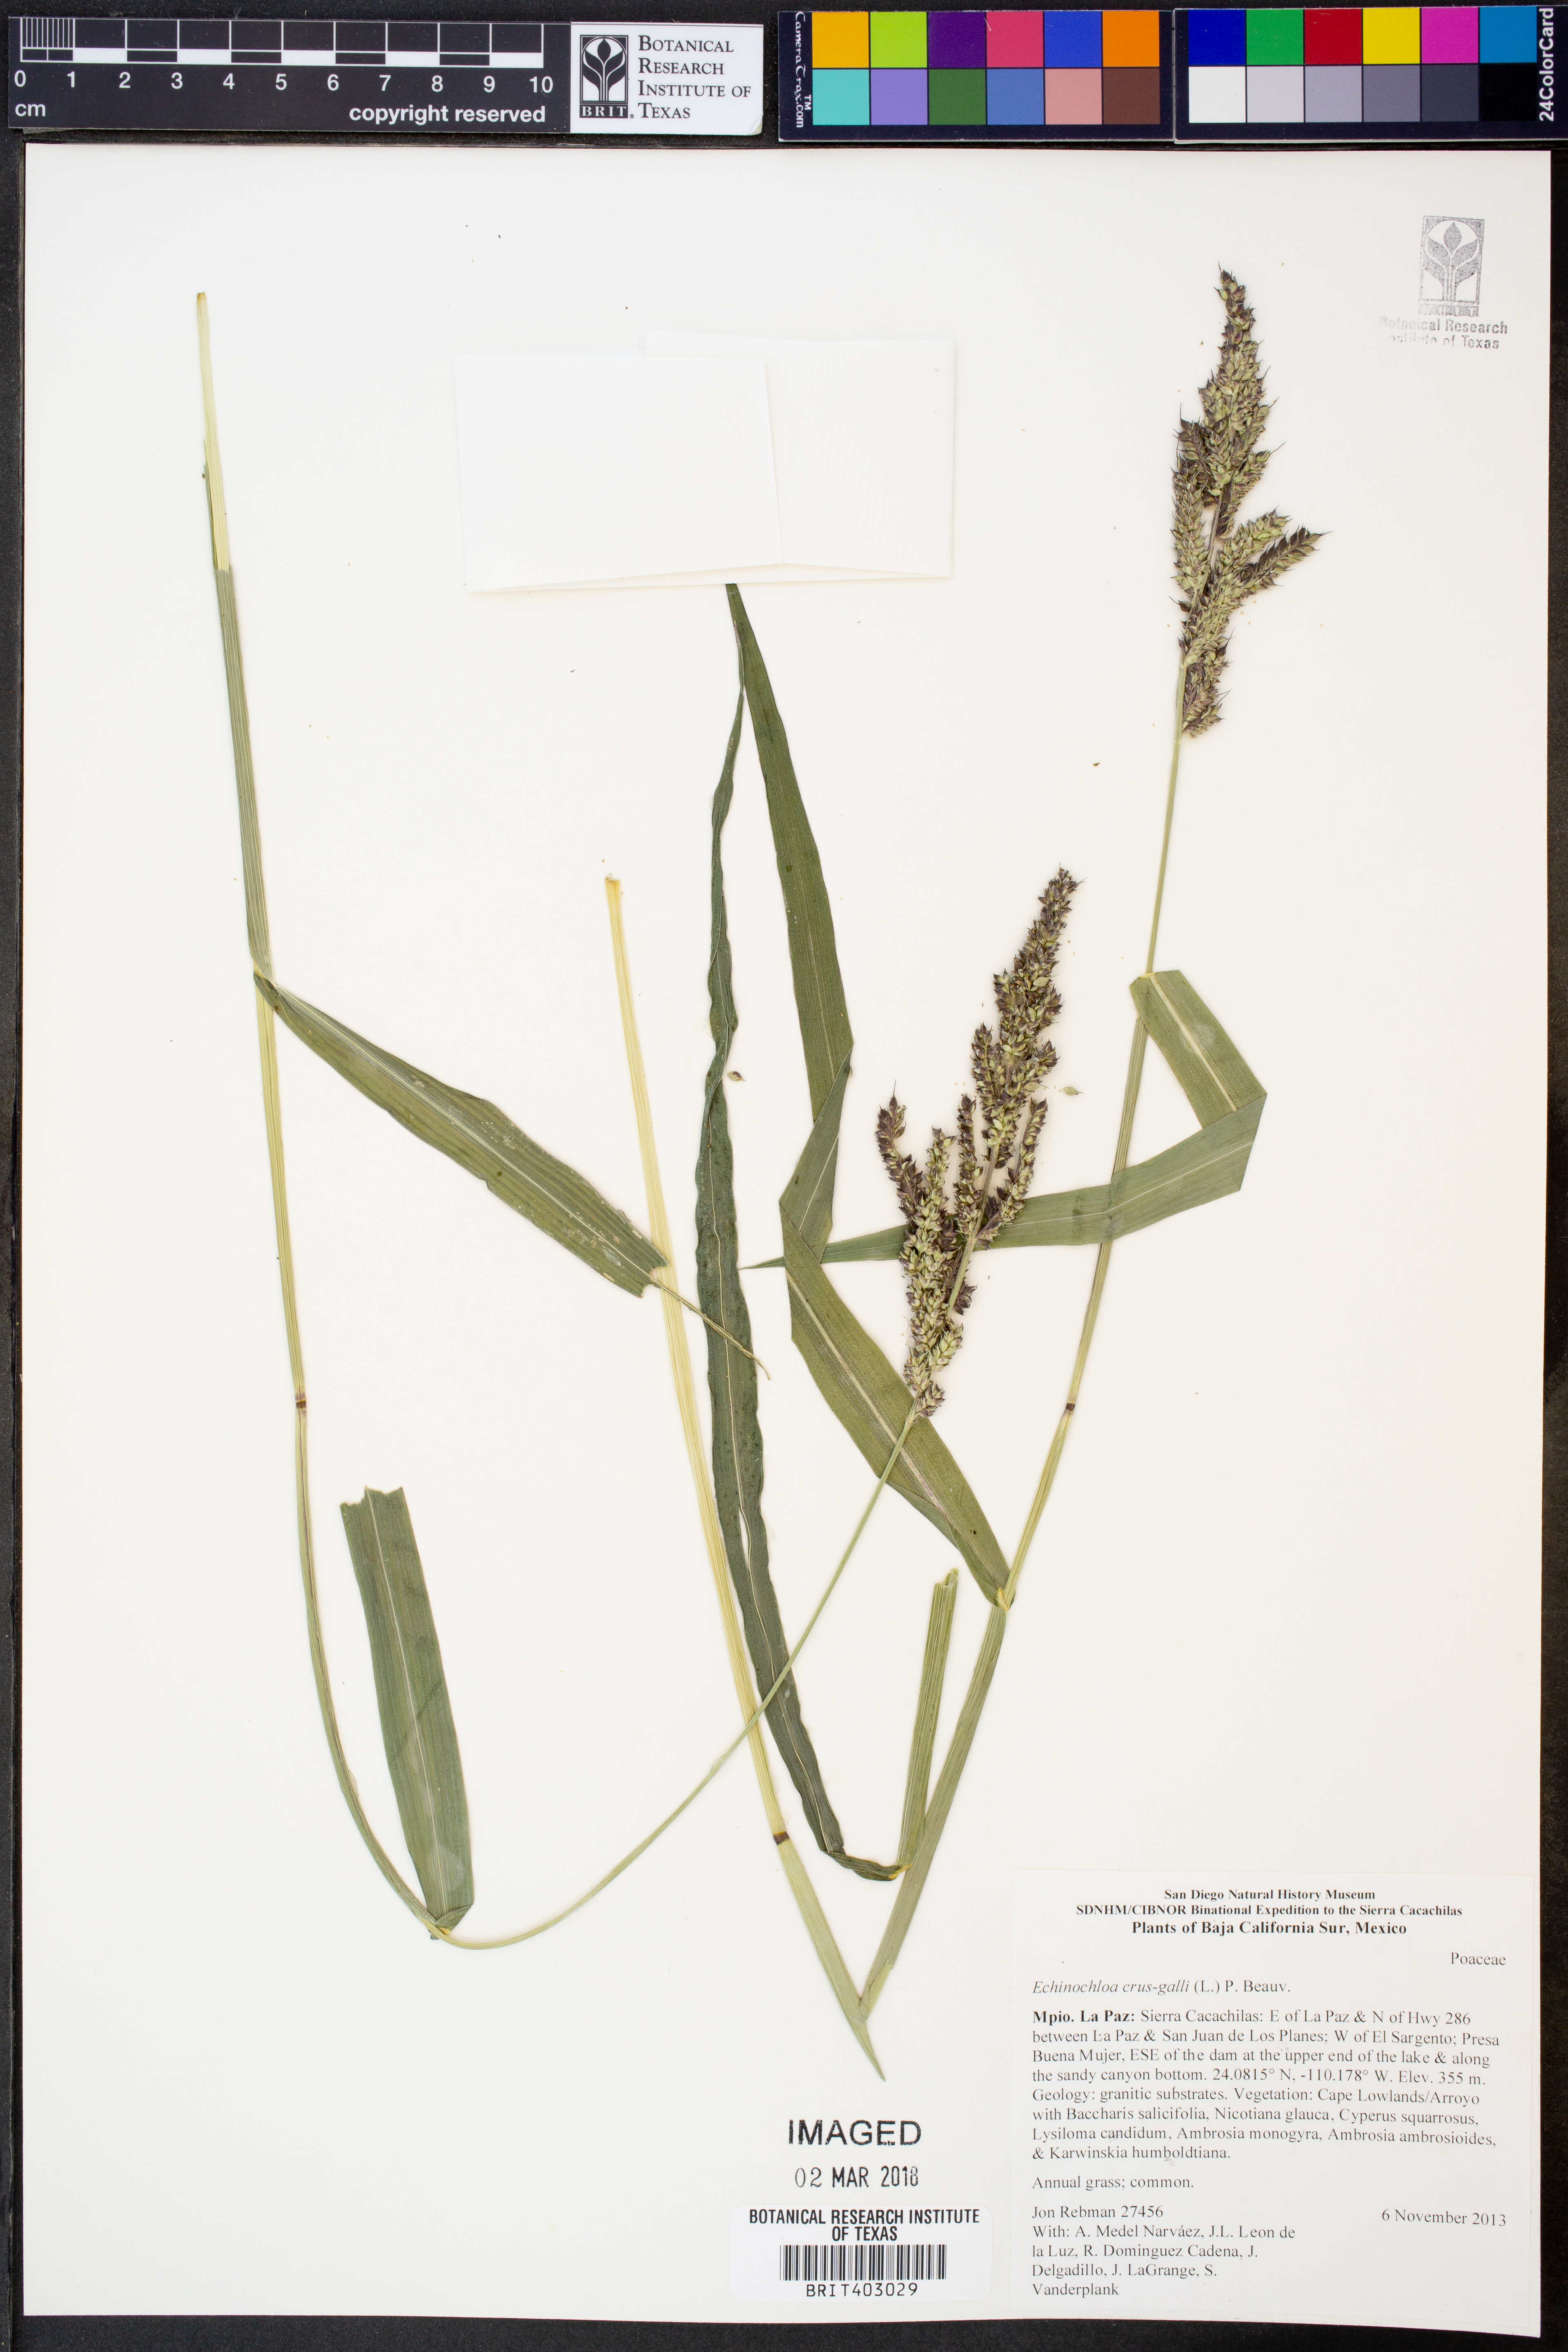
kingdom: Plantae
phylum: Tracheophyta
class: Liliopsida
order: Poales
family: Poaceae
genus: Echinochloa
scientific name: Echinochloa crus-galli
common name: Cockspur
